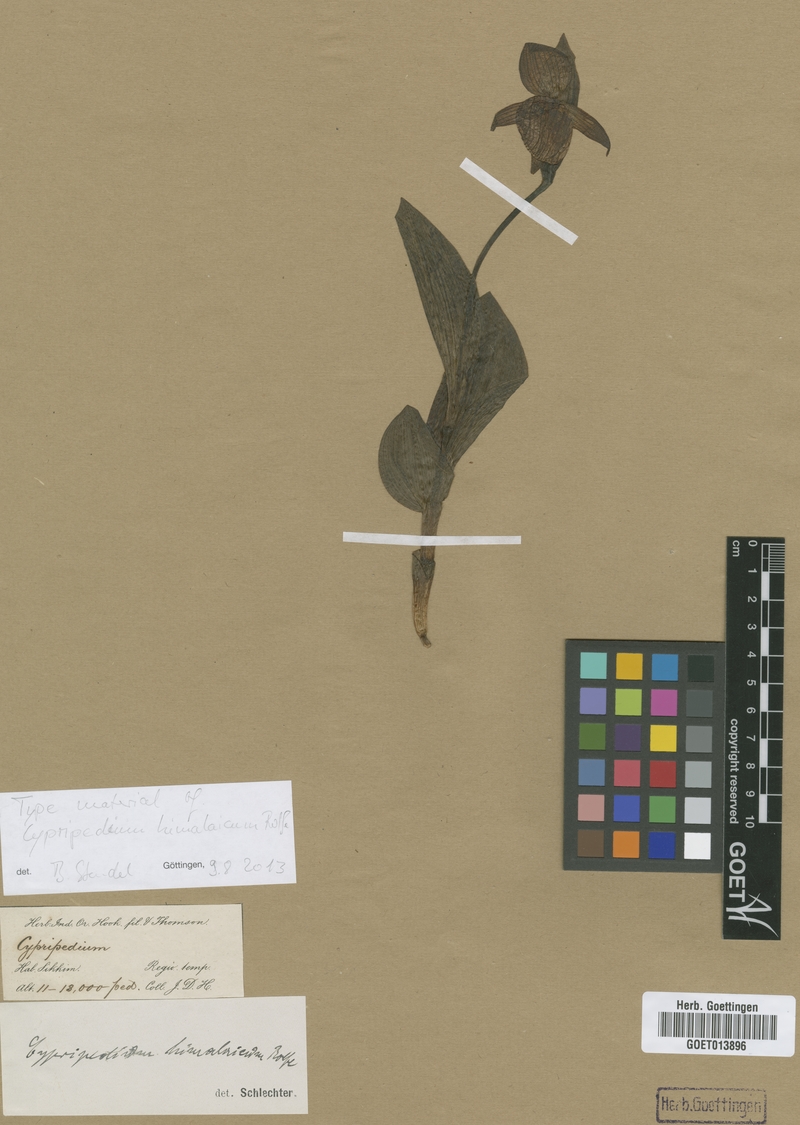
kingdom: Plantae
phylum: Tracheophyta
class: Liliopsida
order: Asparagales
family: Orchidaceae
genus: Cypripedium
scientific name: Cypripedium himalaicum
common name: Himalayan cypripedium
